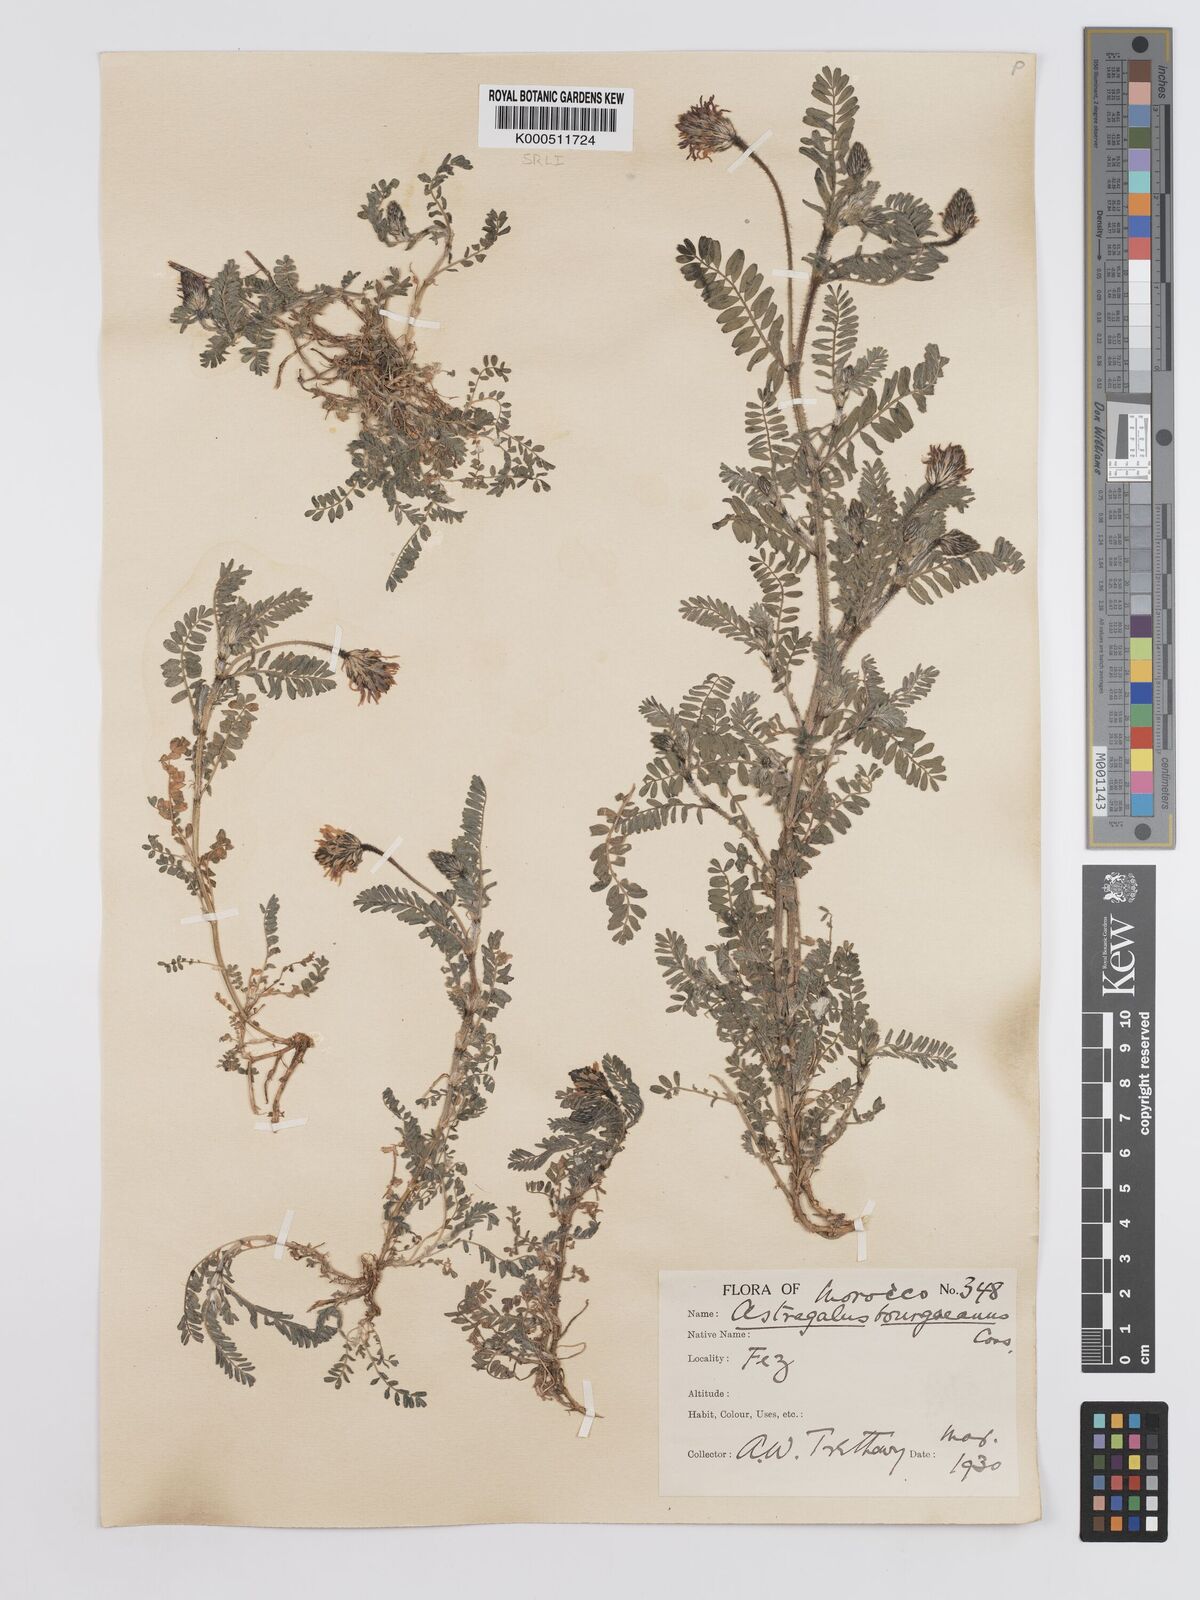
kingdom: Plantae
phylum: Tracheophyta
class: Magnoliopsida
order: Fabales
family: Fabaceae
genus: Astragalus
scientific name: Astragalus bourgaeanus
